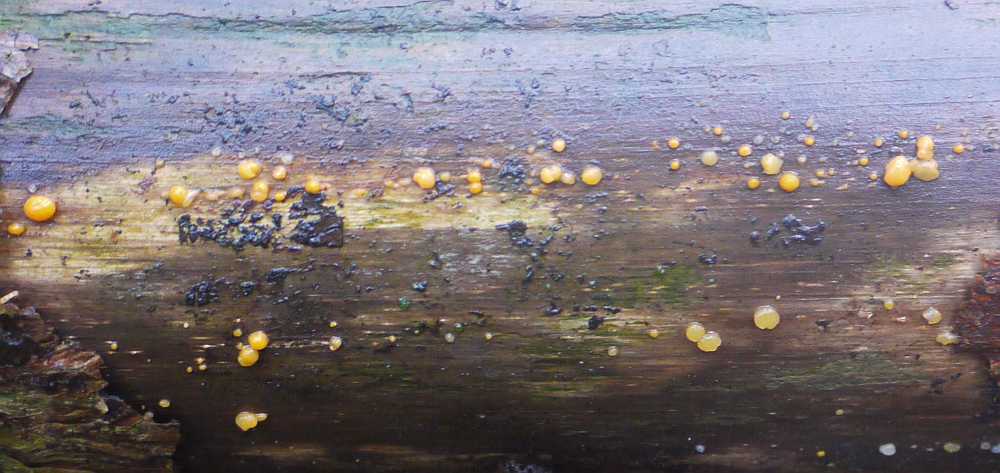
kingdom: Fungi
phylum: Basidiomycota
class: Dacrymycetes
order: Dacrymycetales
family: Dacrymycetaceae
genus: Dacrymyces
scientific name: Dacrymyces stillatus
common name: almindelig tåresvamp
